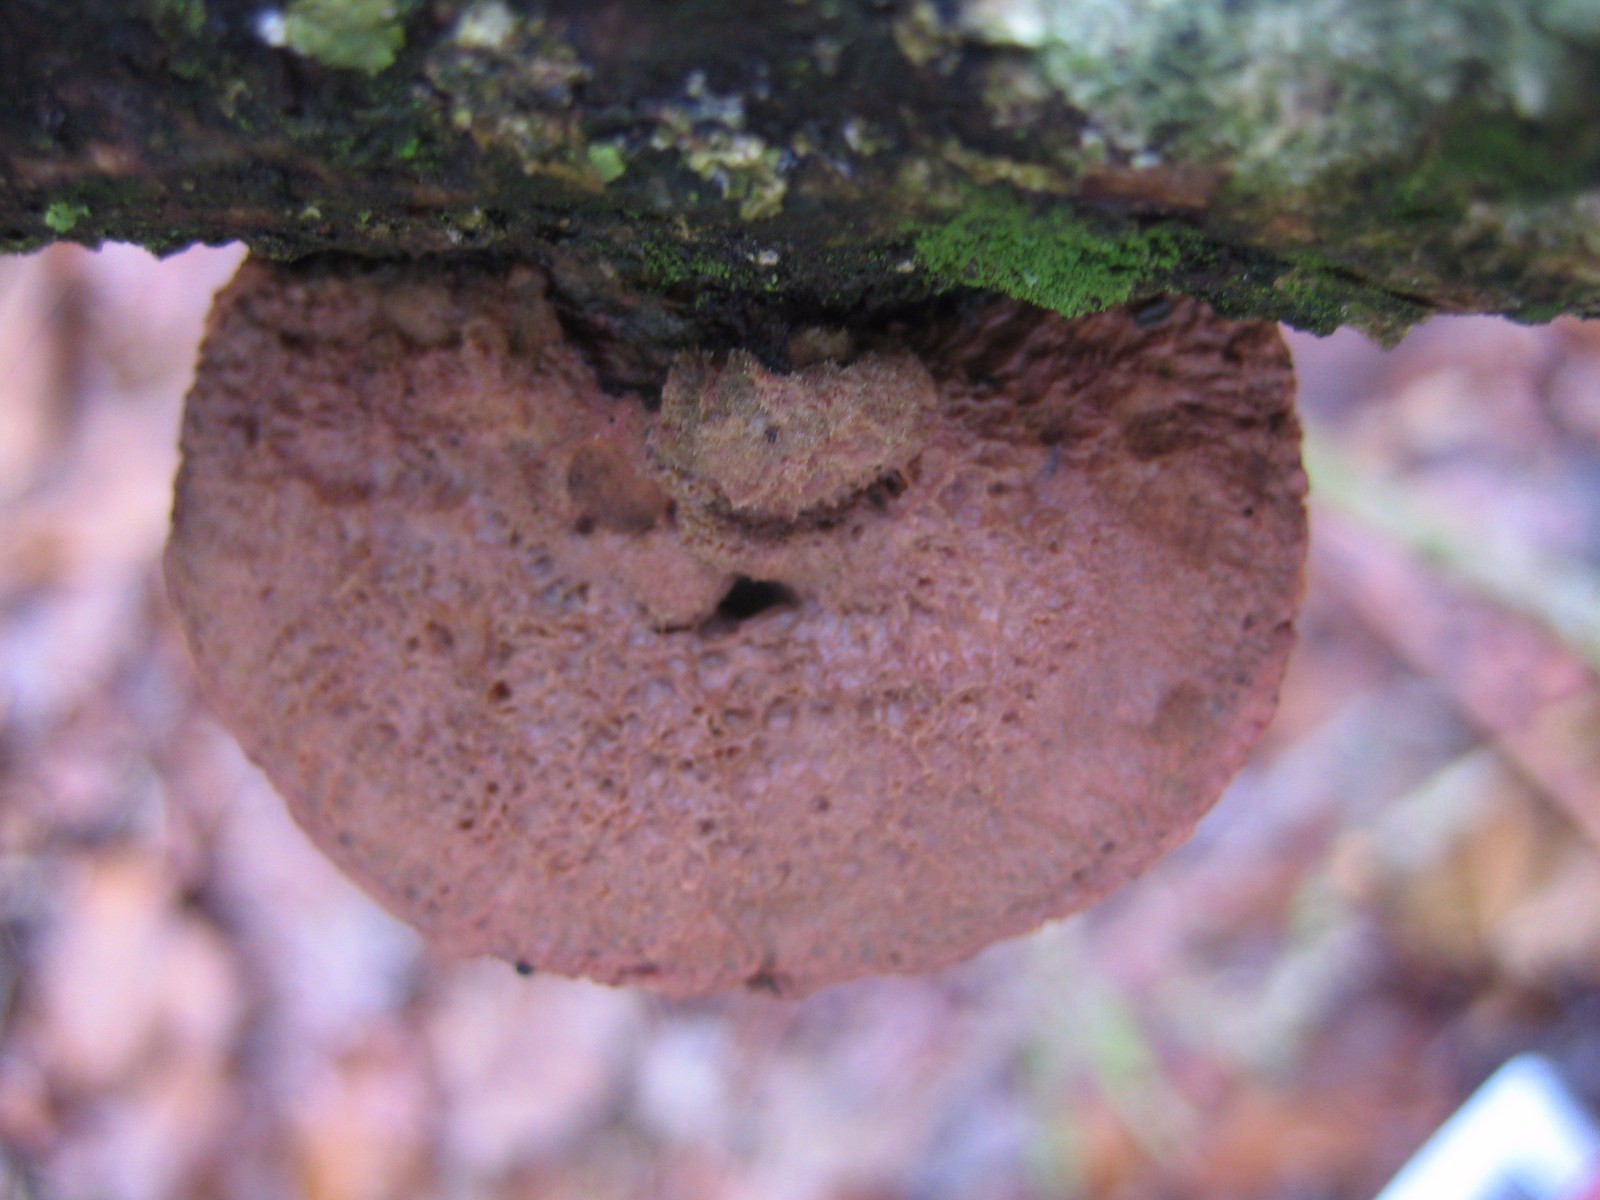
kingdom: Fungi
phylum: Basidiomycota
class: Agaricomycetes
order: Polyporales
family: Phanerochaetaceae
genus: Hapalopilus
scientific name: Hapalopilus rutilans
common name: rødlig okkerporesvamp
